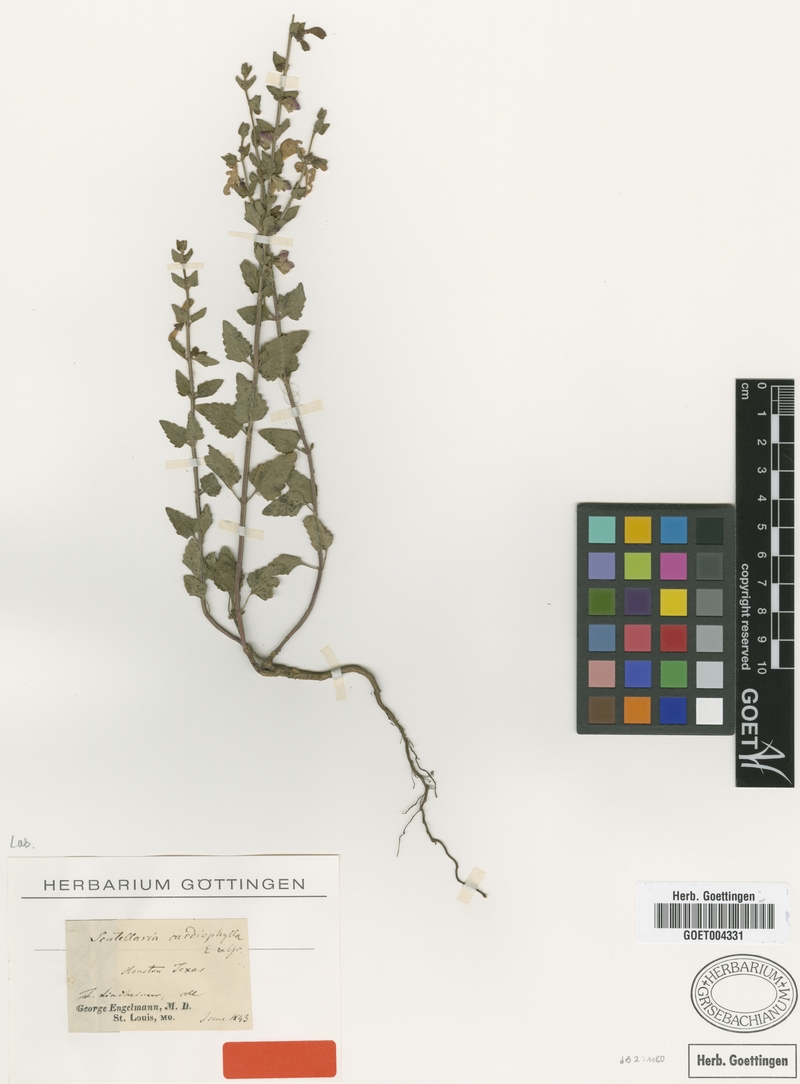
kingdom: Plantae
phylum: Tracheophyta
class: Magnoliopsida
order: Lamiales
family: Lamiaceae
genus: Scutellaria
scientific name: Scutellaria cardiophylla
